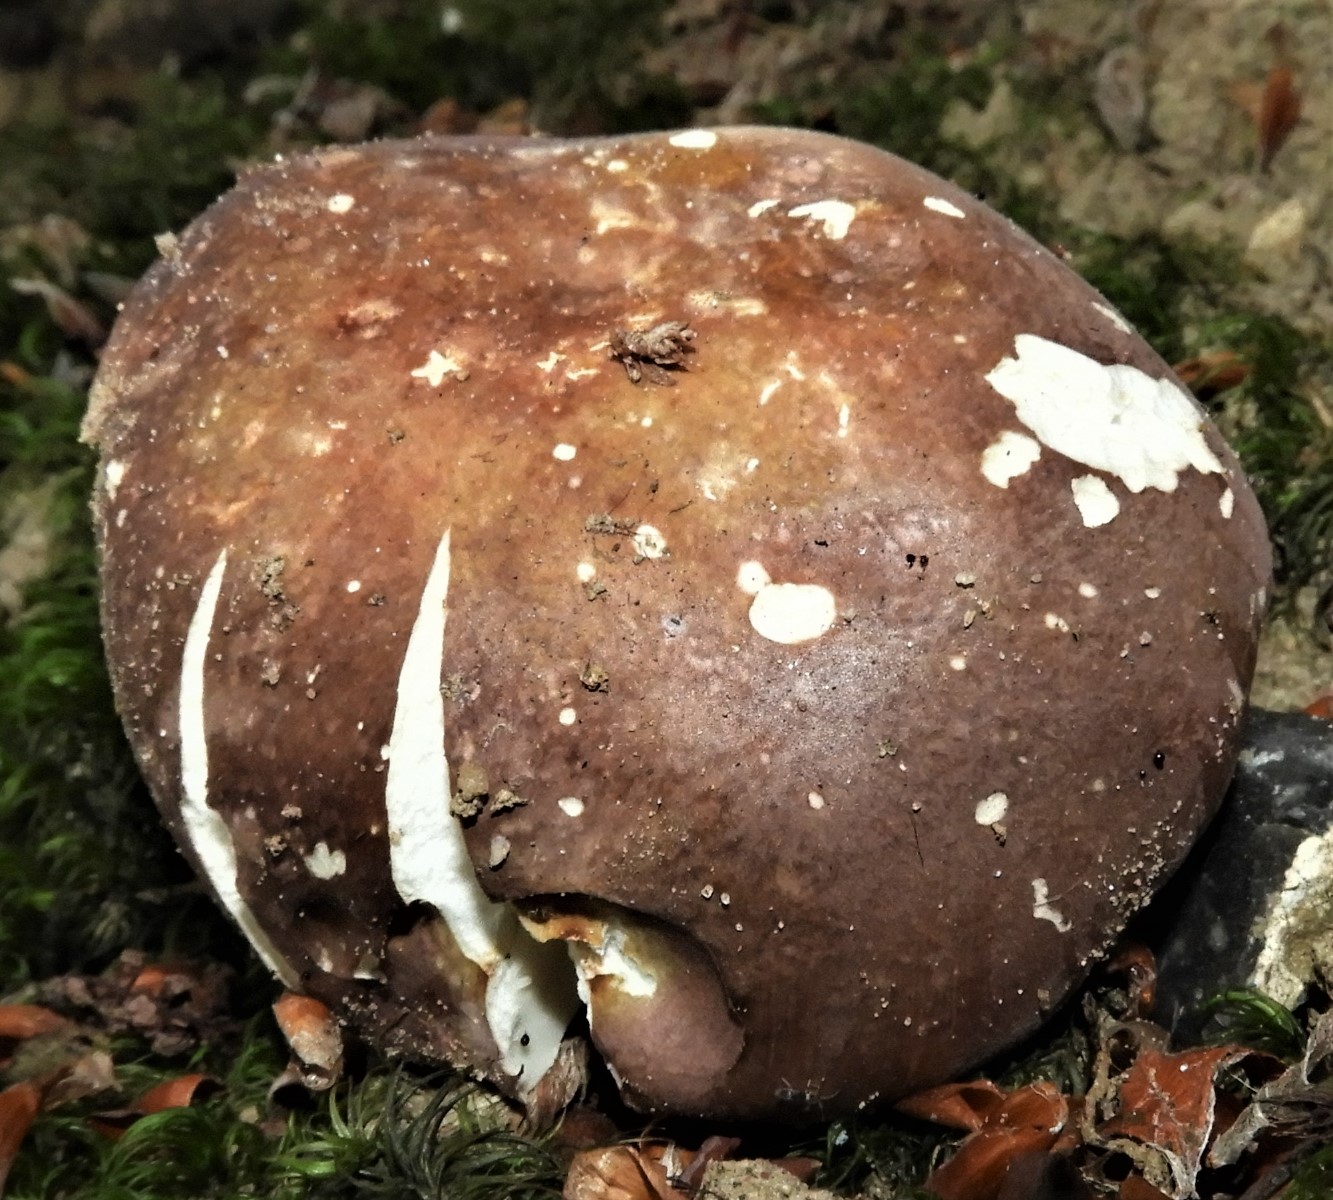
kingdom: Fungi
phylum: Basidiomycota
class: Agaricomycetes
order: Russulales
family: Russulaceae
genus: Russula
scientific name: Russula olivacea
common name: stor skørhat
